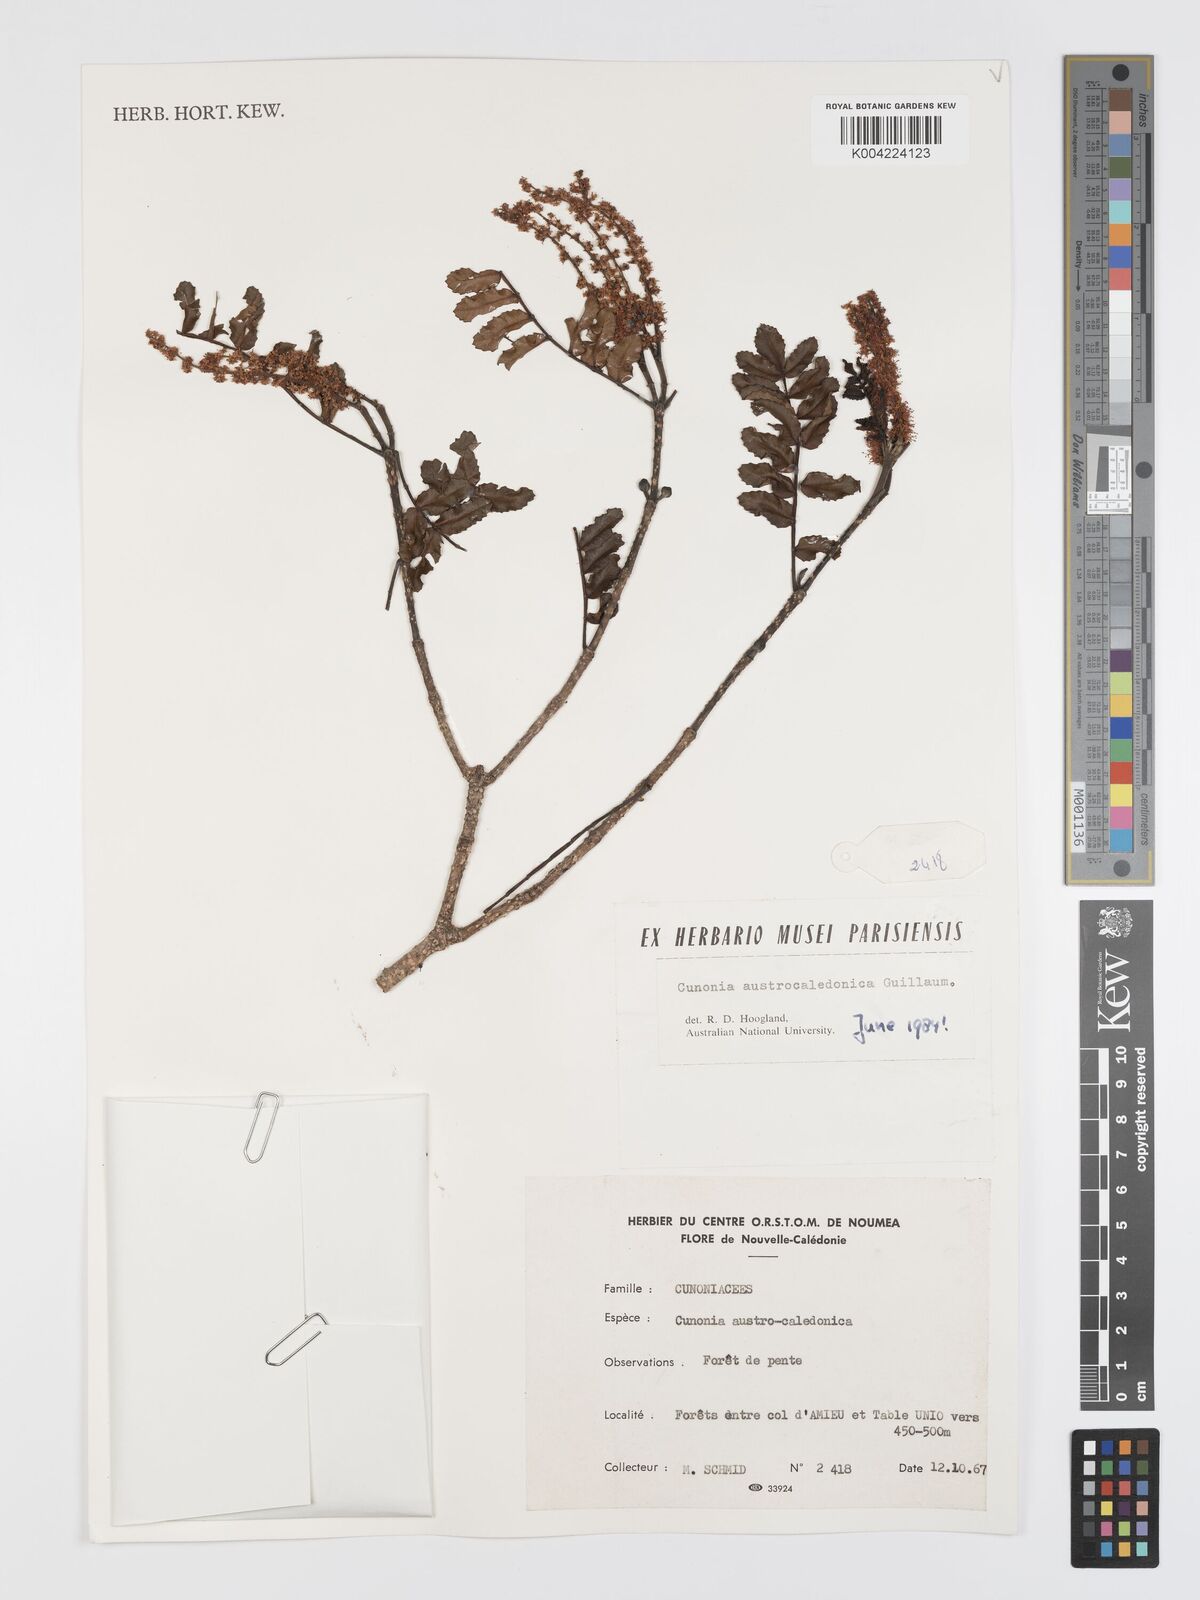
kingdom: Plantae
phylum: Tracheophyta
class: Magnoliopsida
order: Oxalidales
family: Cunoniaceae
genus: Cunonia
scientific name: Cunonia austrocaledonica
